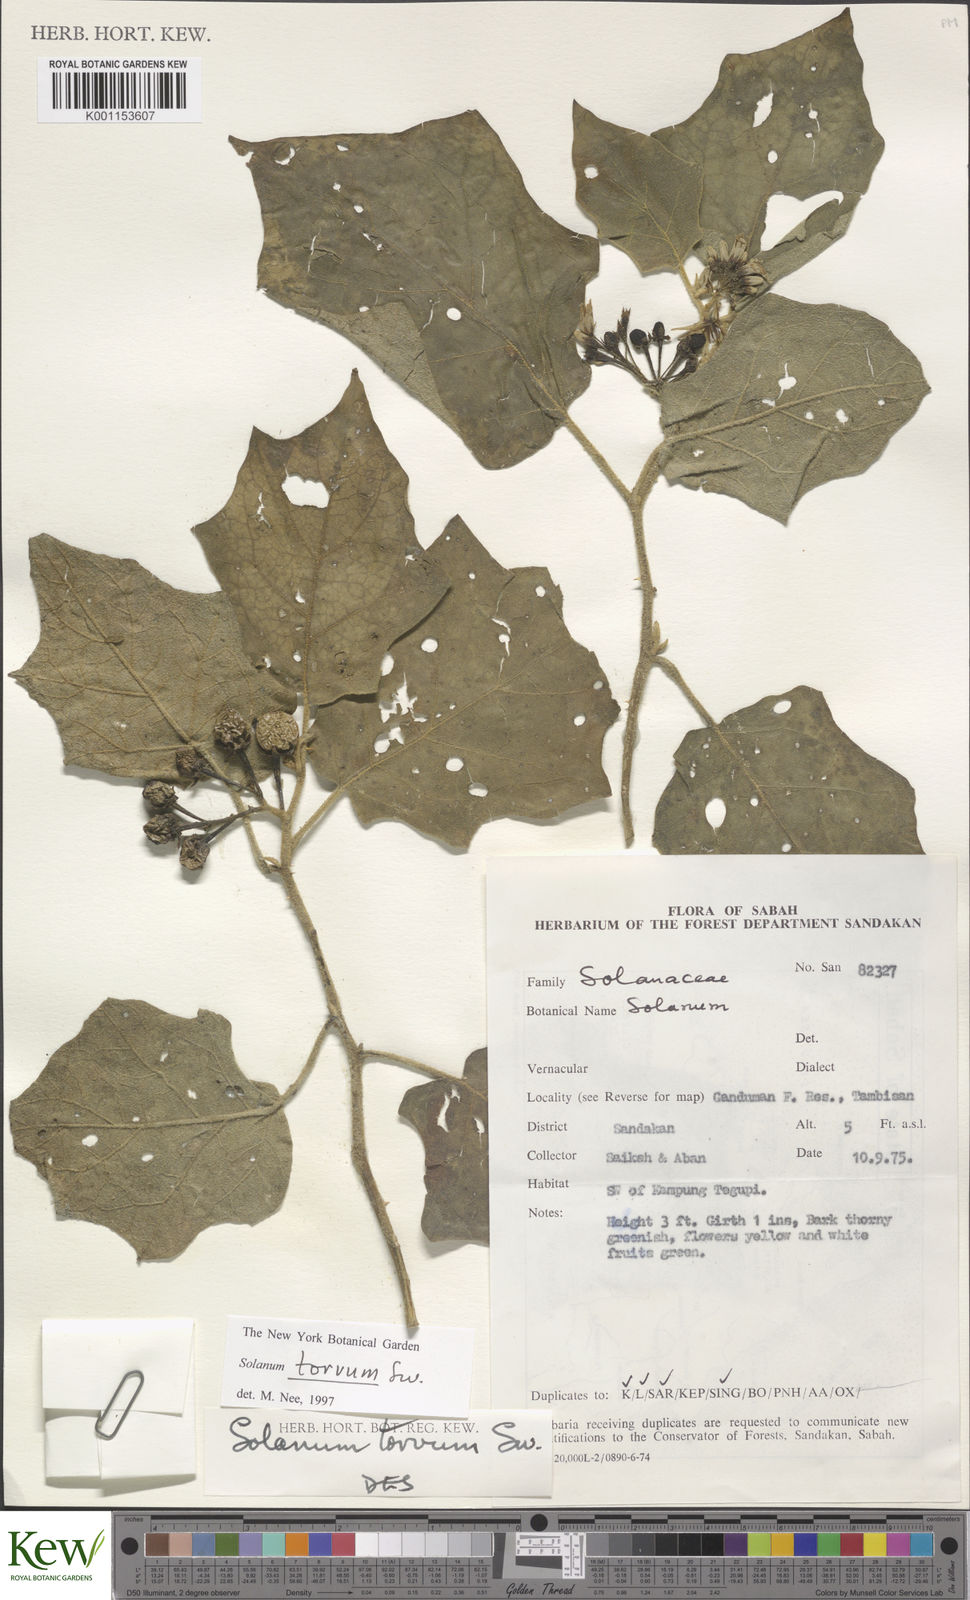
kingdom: Plantae
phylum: Tracheophyta
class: Magnoliopsida
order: Solanales
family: Solanaceae
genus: Solanum
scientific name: Solanum torvum
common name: Turkey berry
